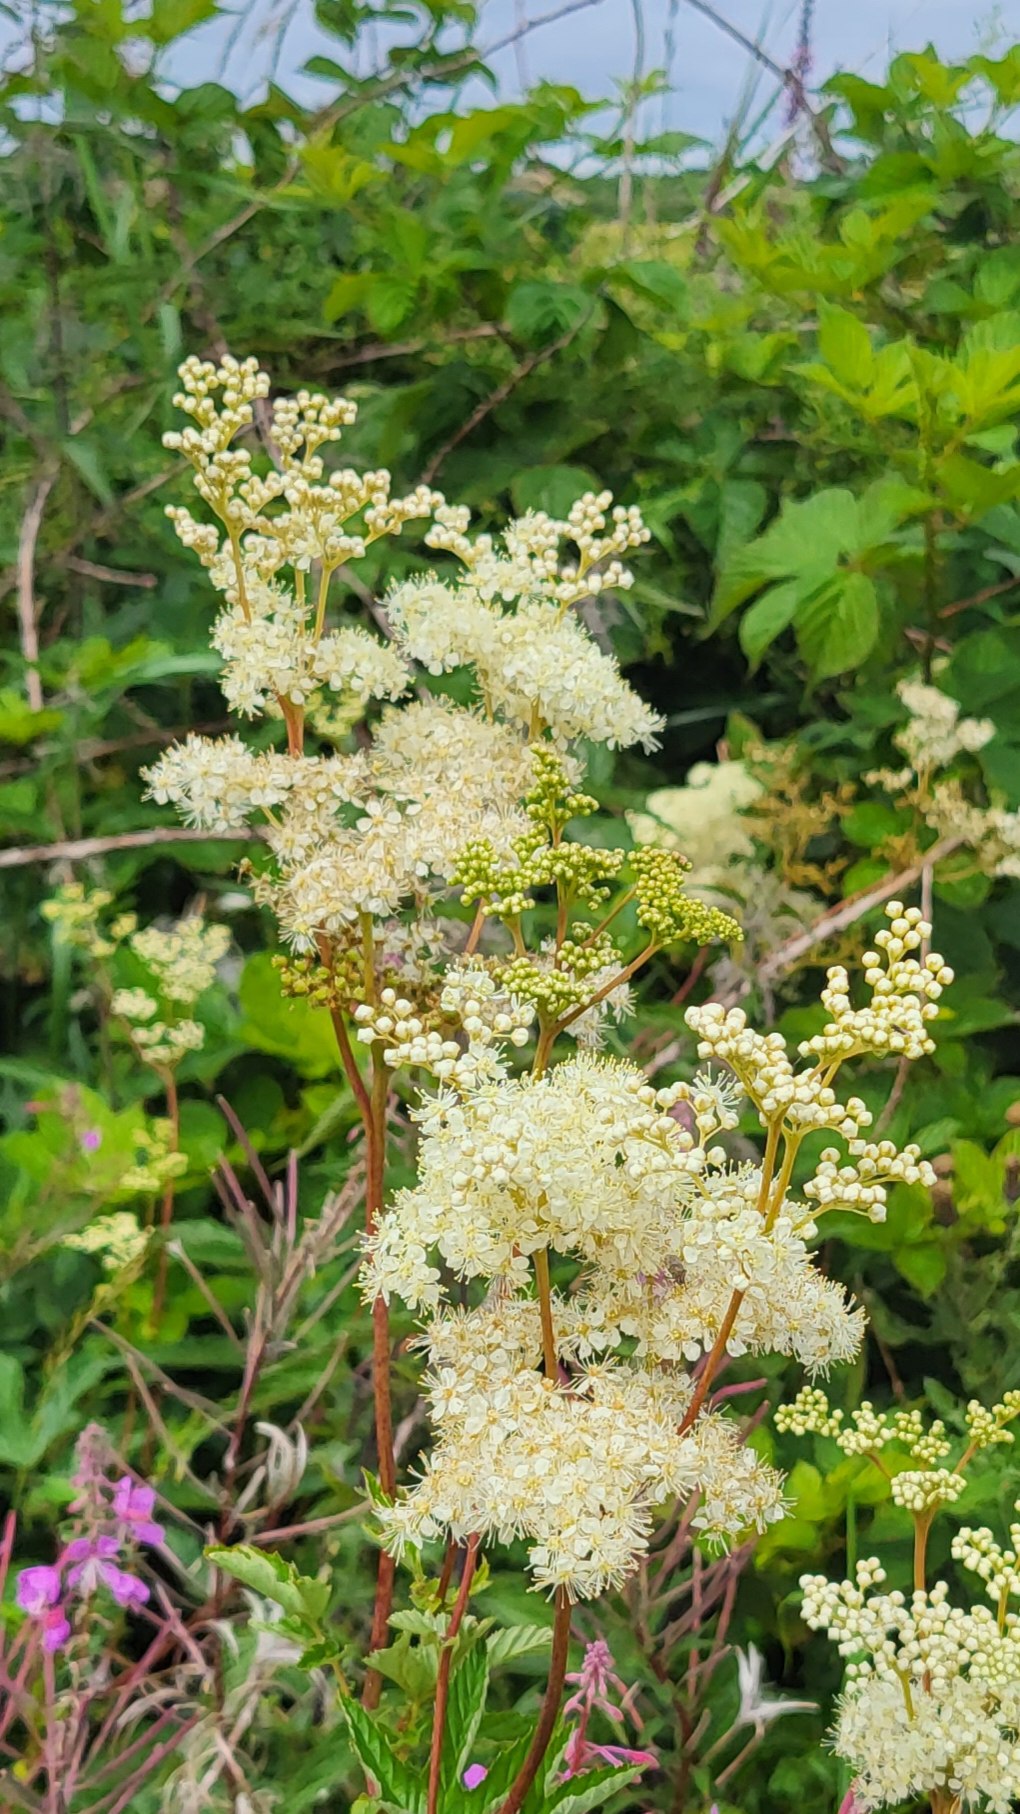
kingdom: Plantae
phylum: Tracheophyta
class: Magnoliopsida
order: Rosales
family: Rosaceae
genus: Filipendula
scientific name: Filipendula ulmaria
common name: Almindelig mjødurt
